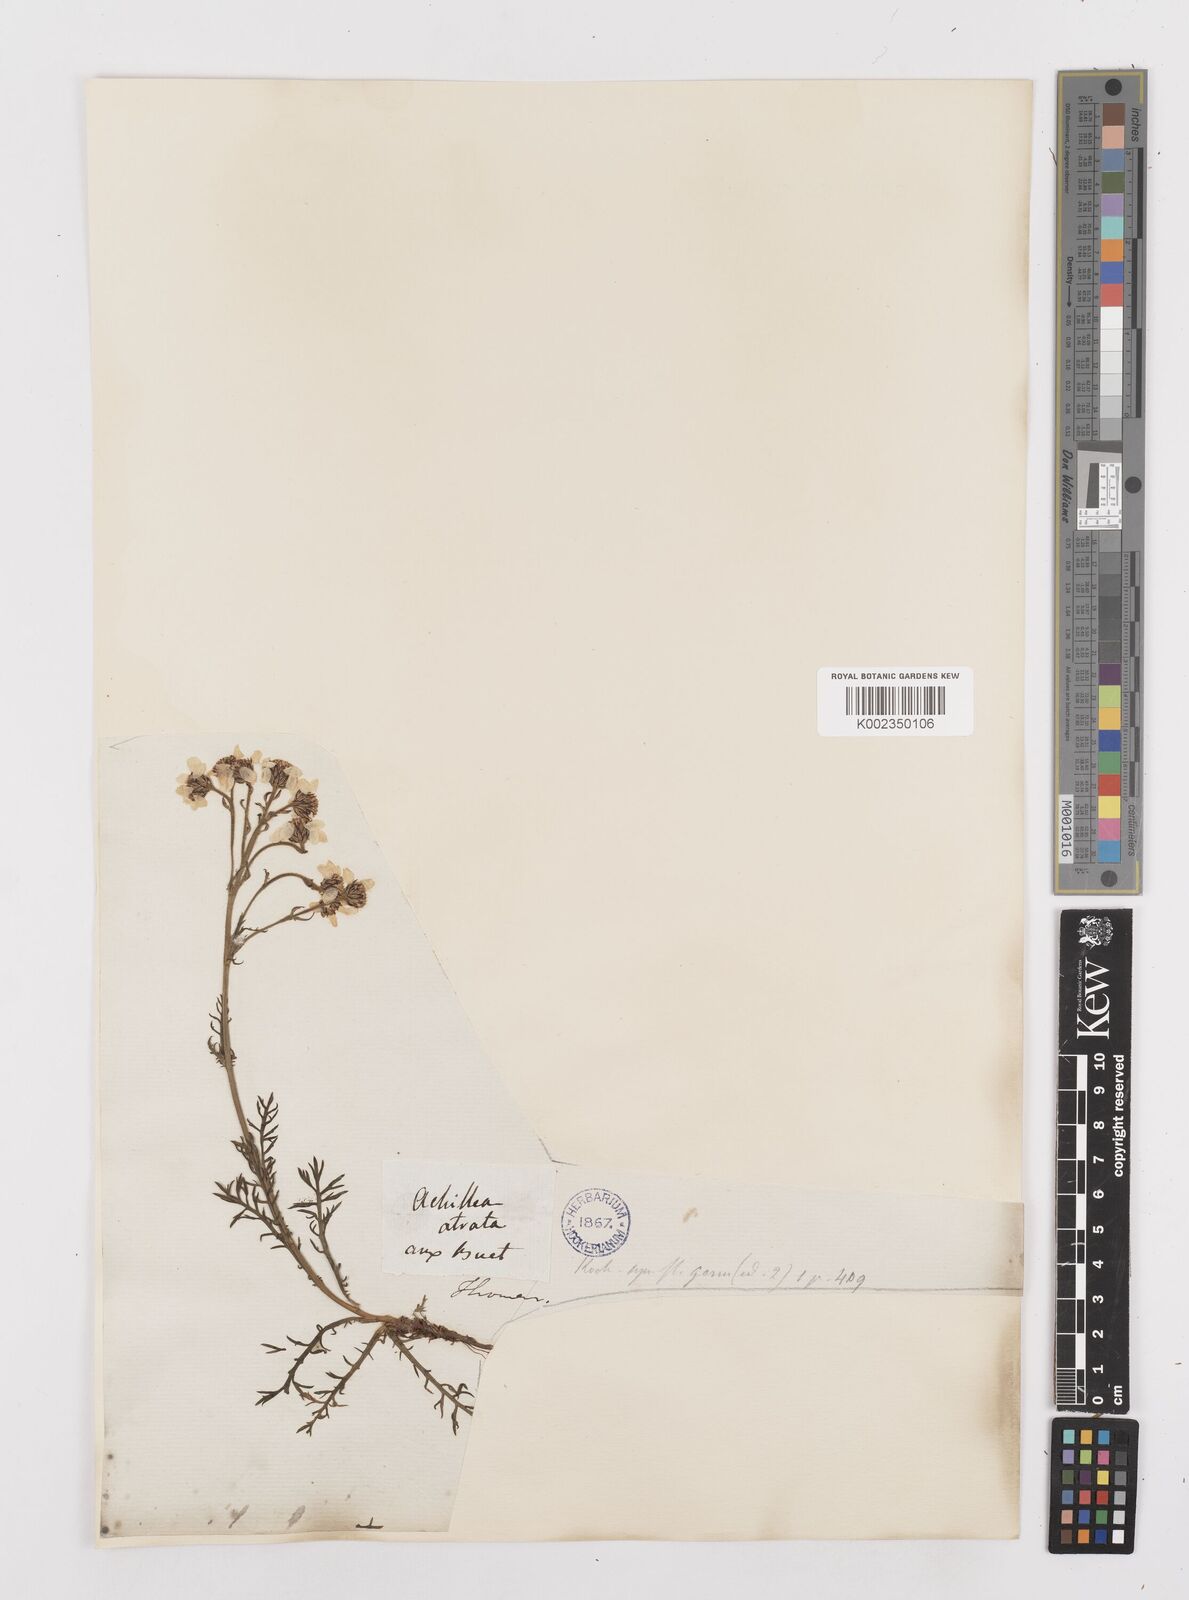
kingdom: Plantae
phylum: Tracheophyta
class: Magnoliopsida
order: Asterales
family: Asteraceae
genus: Achillea
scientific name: Achillea atrata
